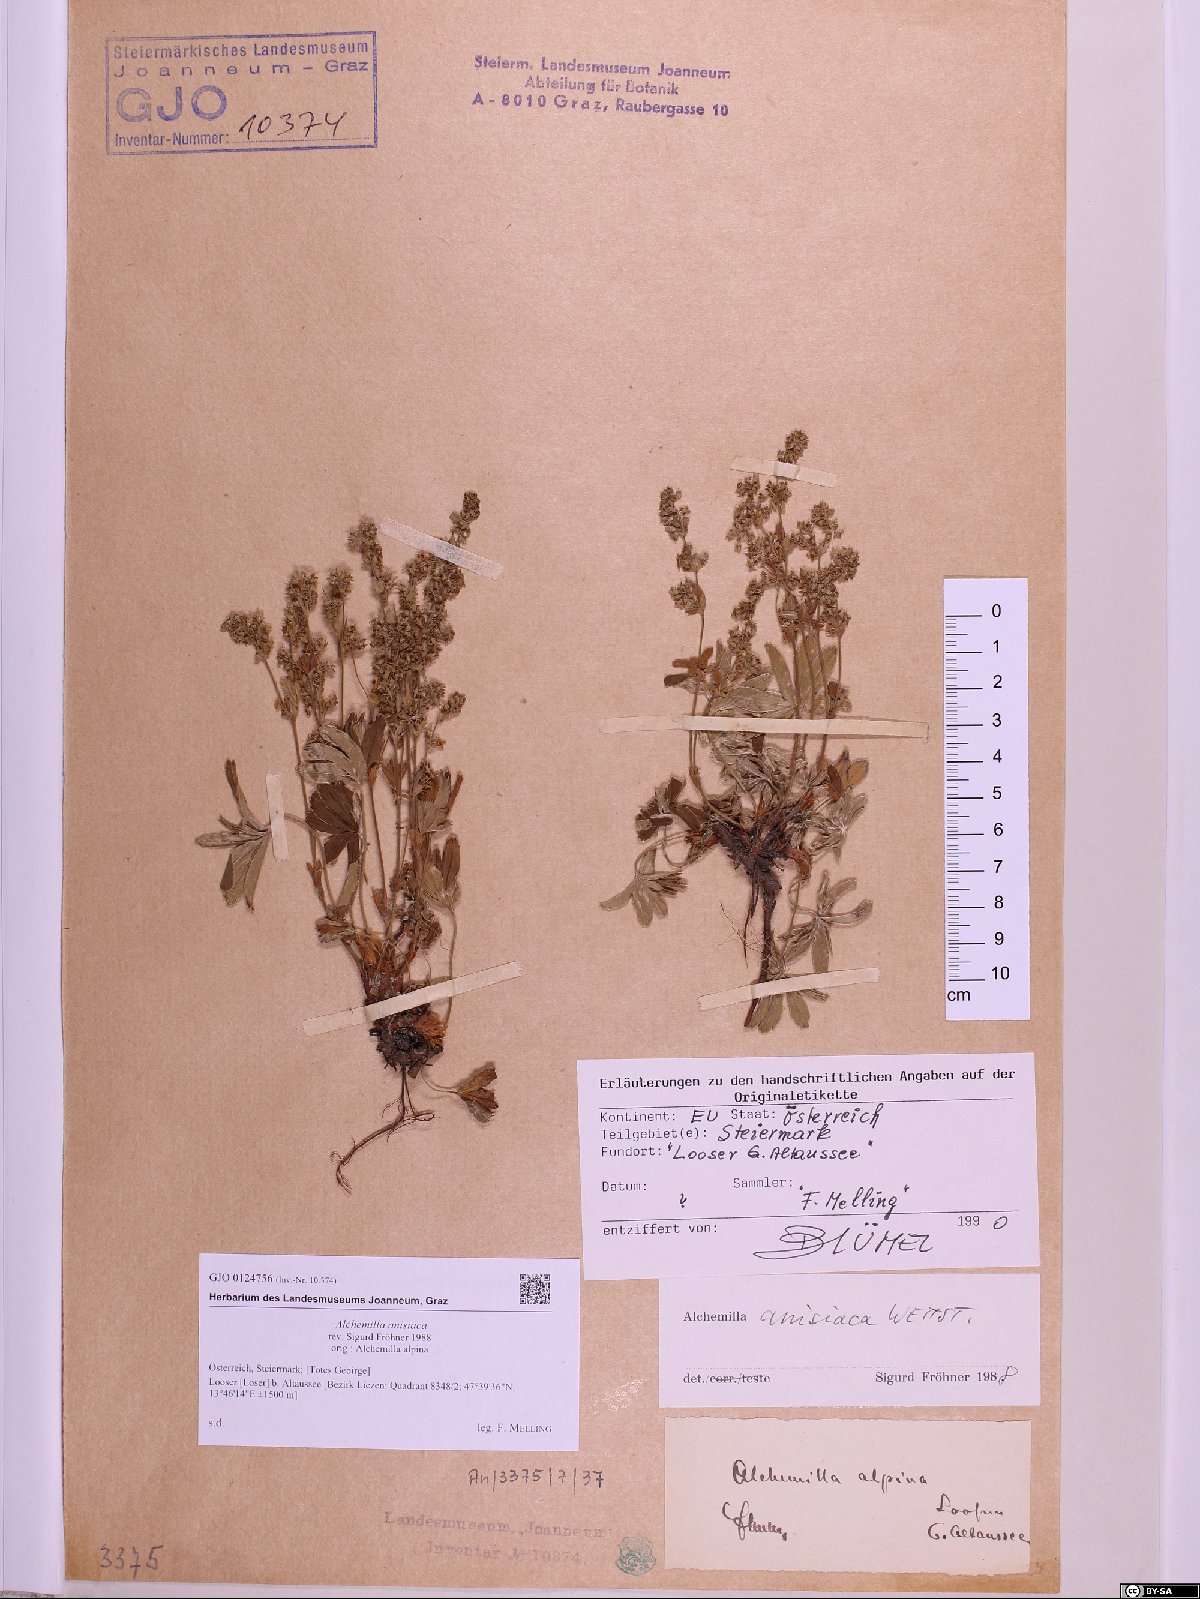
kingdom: Plantae
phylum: Tracheophyta
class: Magnoliopsida
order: Rosales
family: Rosaceae
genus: Alchemilla
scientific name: Alchemilla anisiaca
